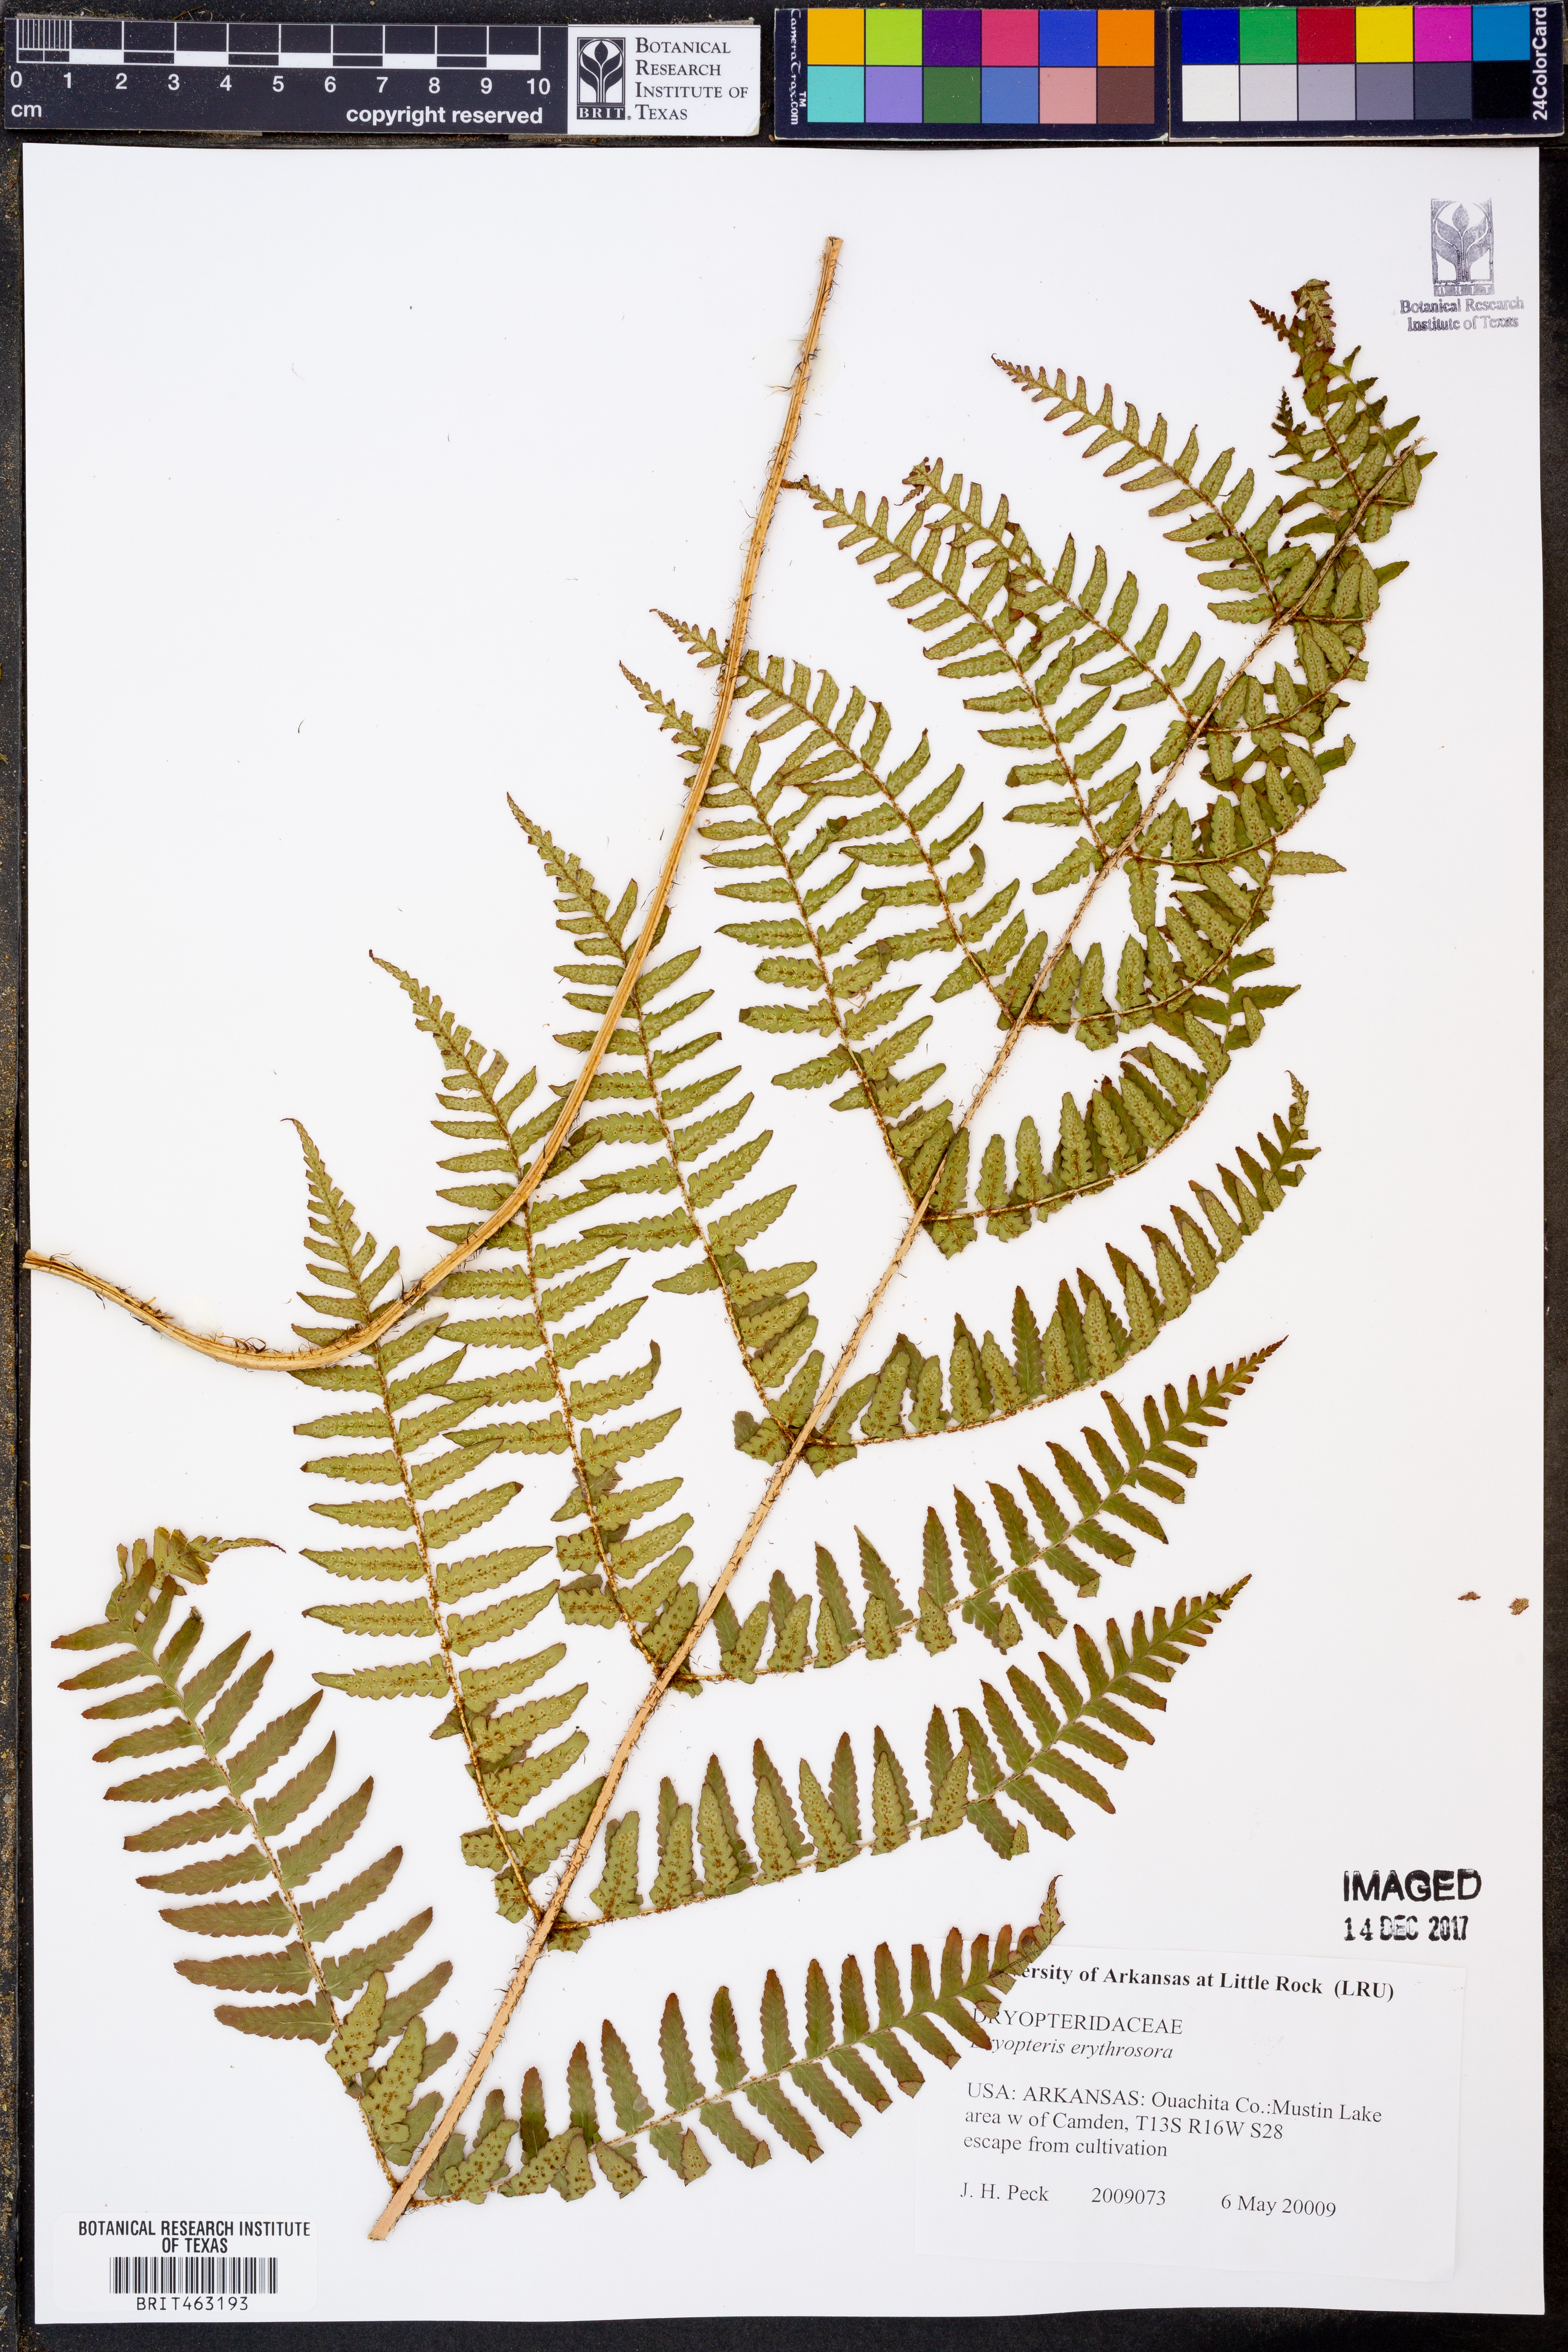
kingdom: Plantae
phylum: Tracheophyta
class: Polypodiopsida
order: Polypodiales
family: Dryopteridaceae
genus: Dryopteris
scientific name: Dryopteris erythrosora
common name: Autumn fern
